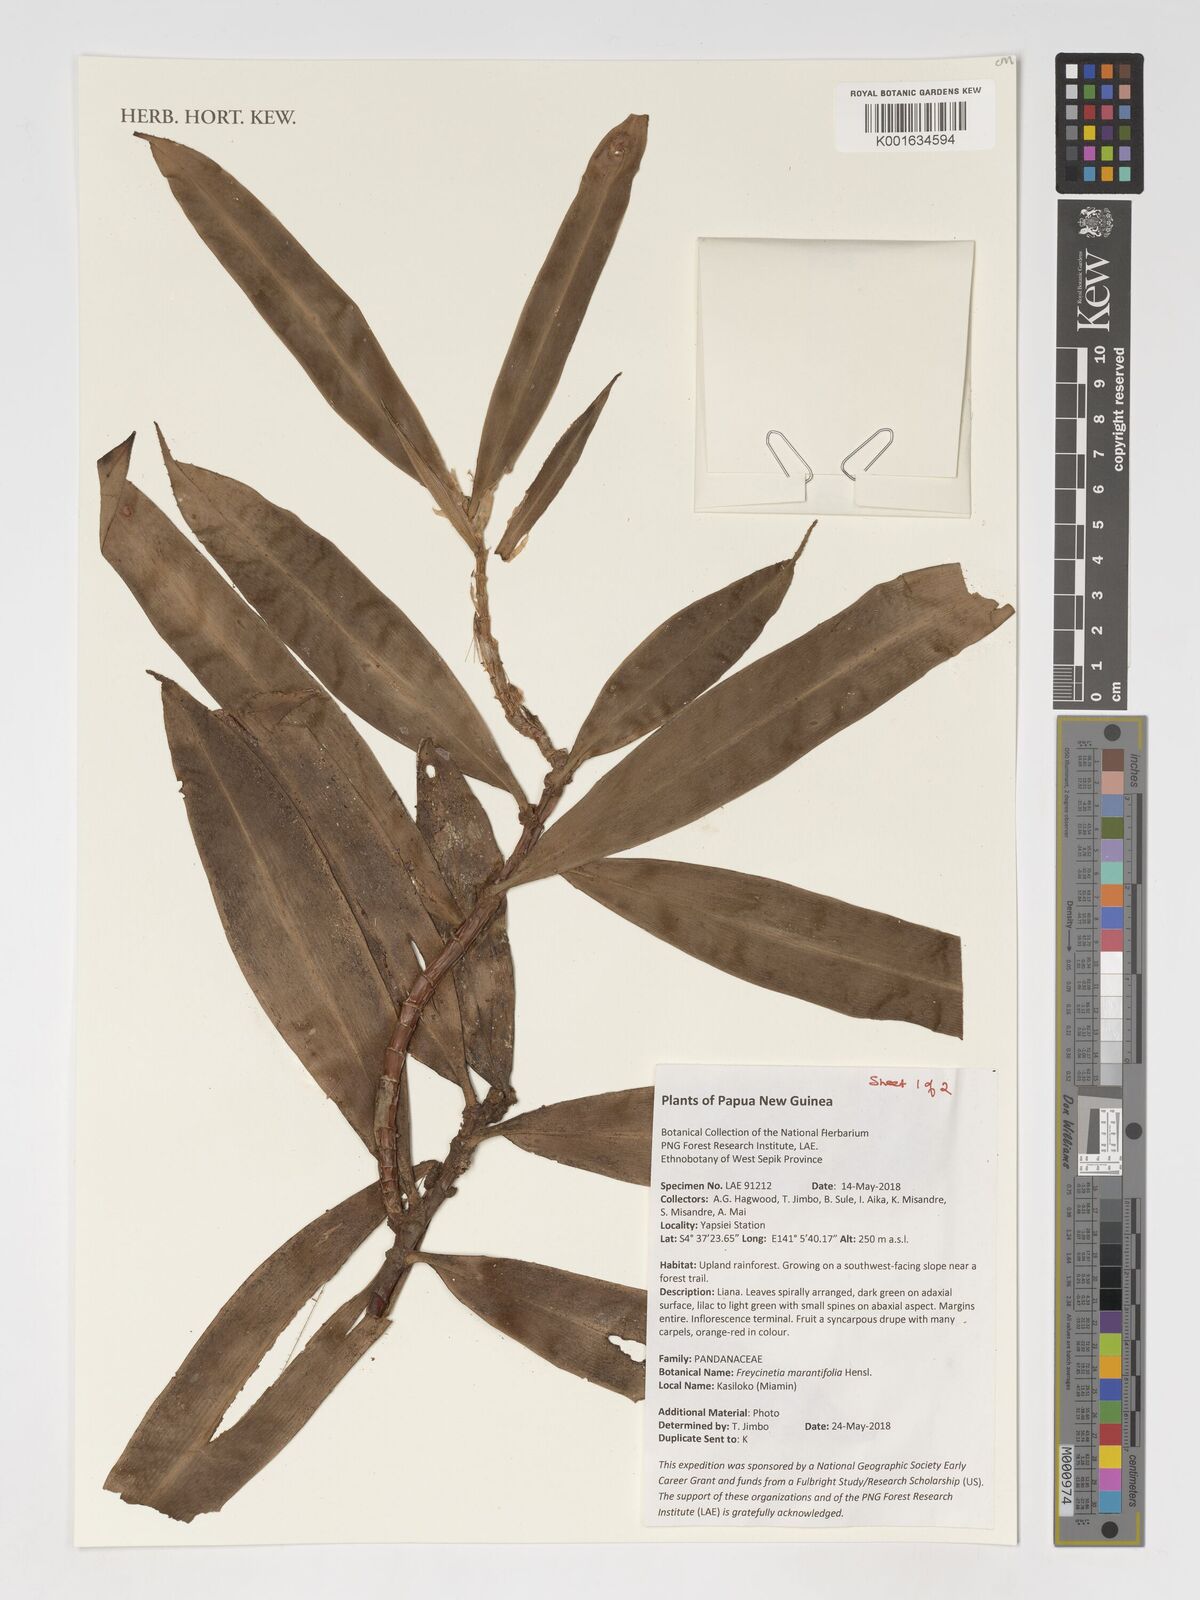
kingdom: Plantae
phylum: Tracheophyta
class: Liliopsida
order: Pandanales
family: Pandanaceae
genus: Freycinetia
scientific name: Freycinetia marantifolia
